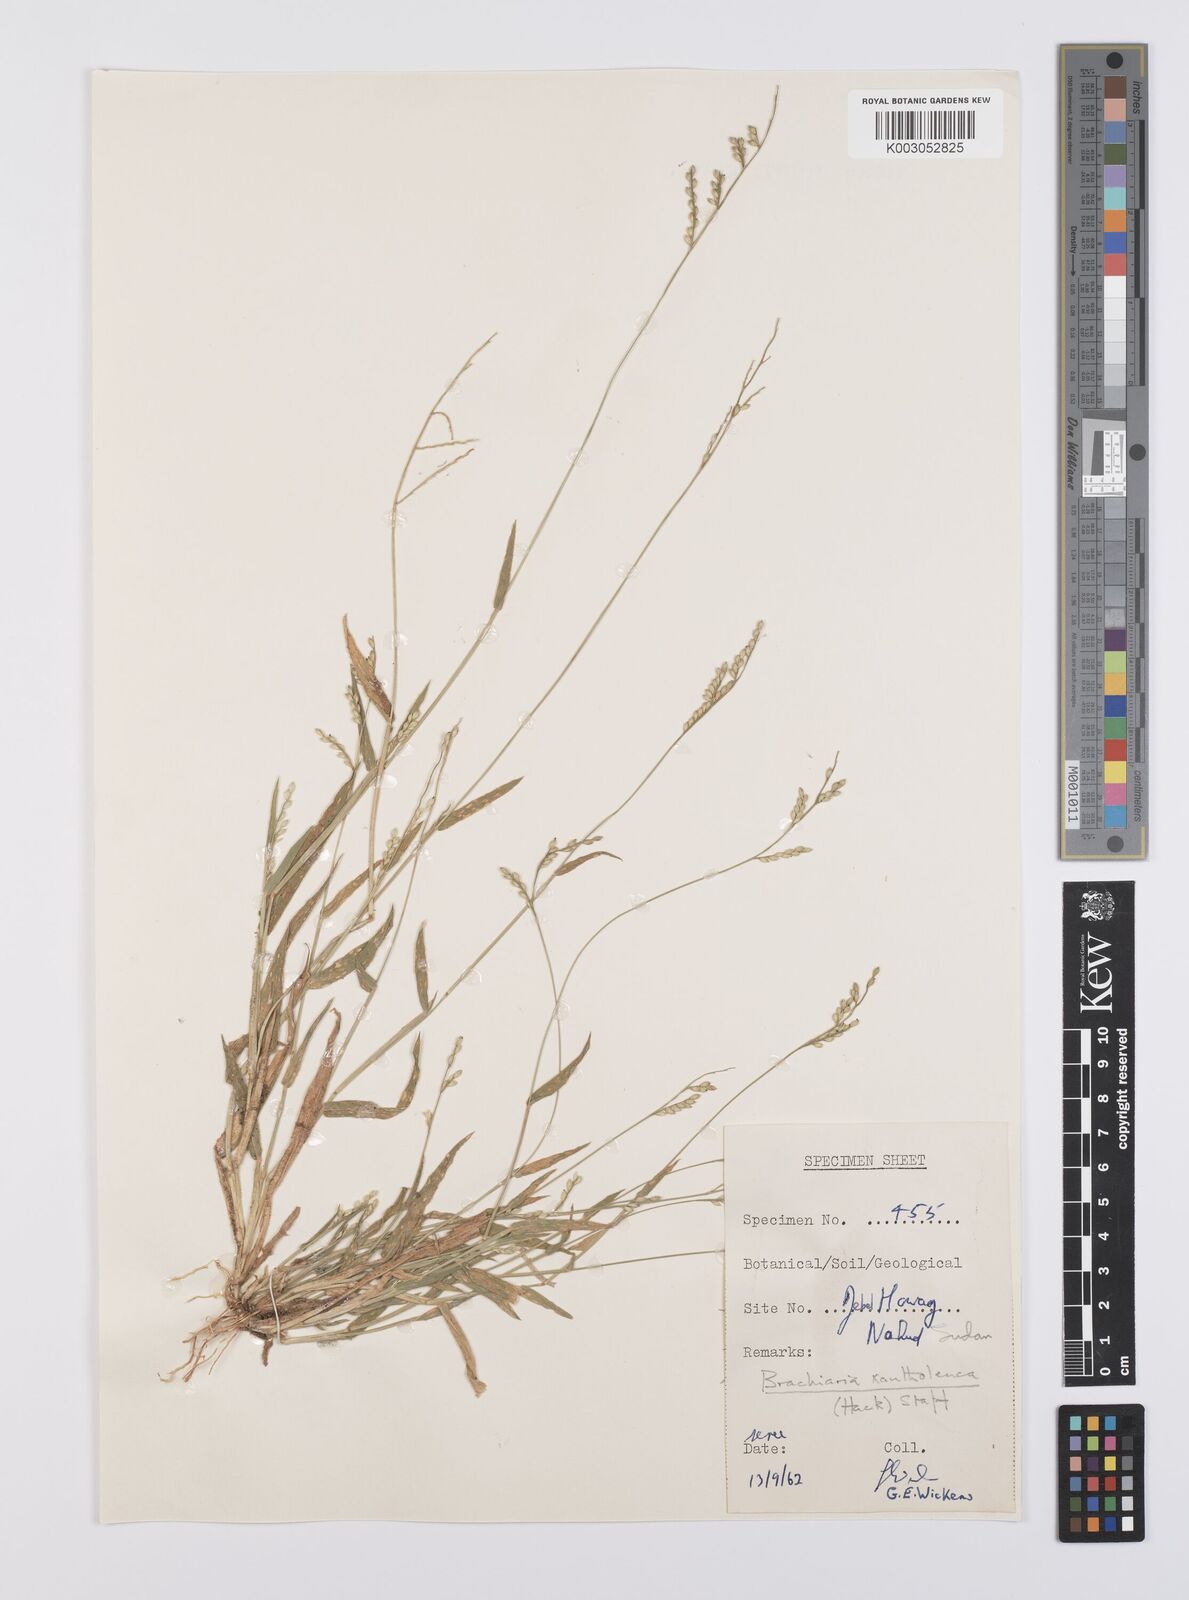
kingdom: Plantae
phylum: Tracheophyta
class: Liliopsida
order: Poales
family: Poaceae
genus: Urochloa
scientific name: Urochloa xantholeuca
